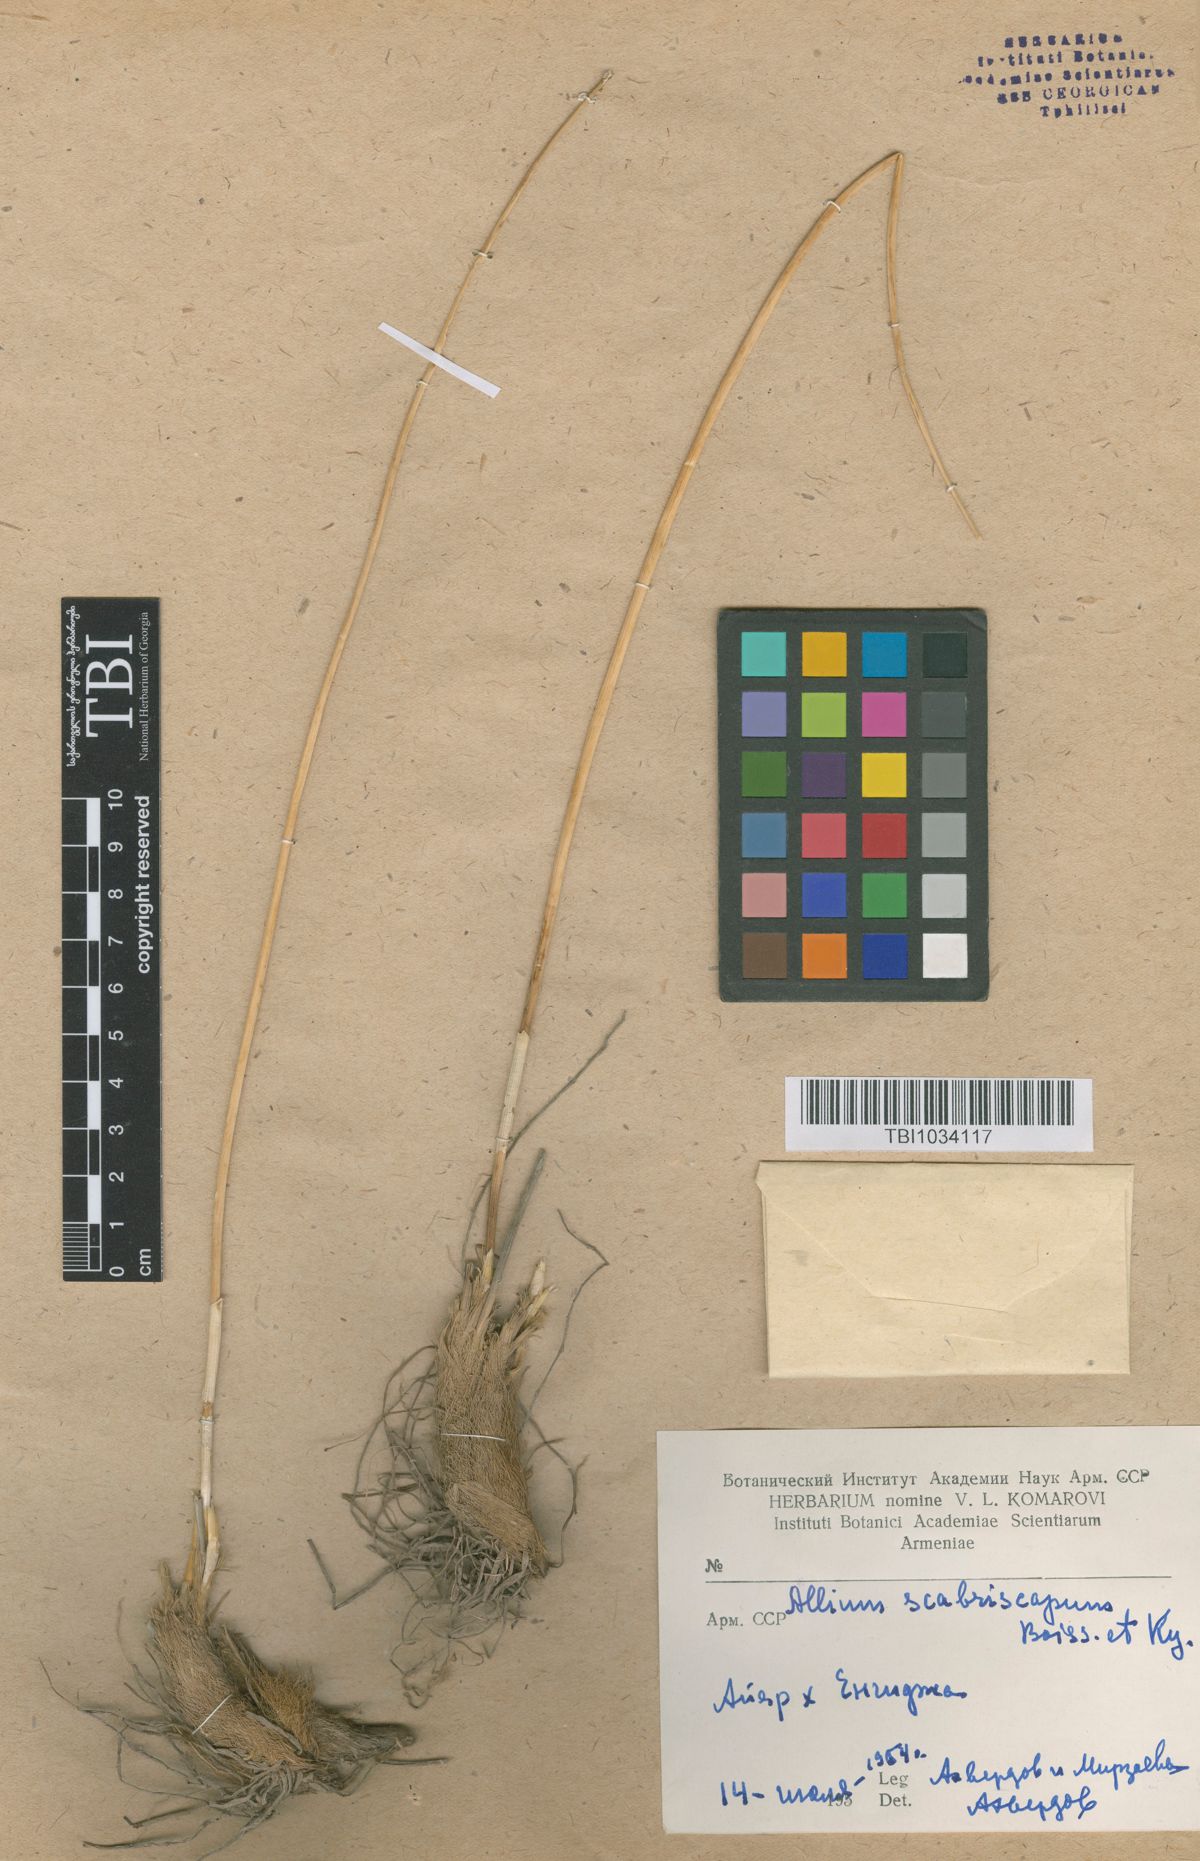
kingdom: Plantae
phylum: Tracheophyta
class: Liliopsida
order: Asparagales
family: Amaryllidaceae
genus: Allium
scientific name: Allium scabriscapum
